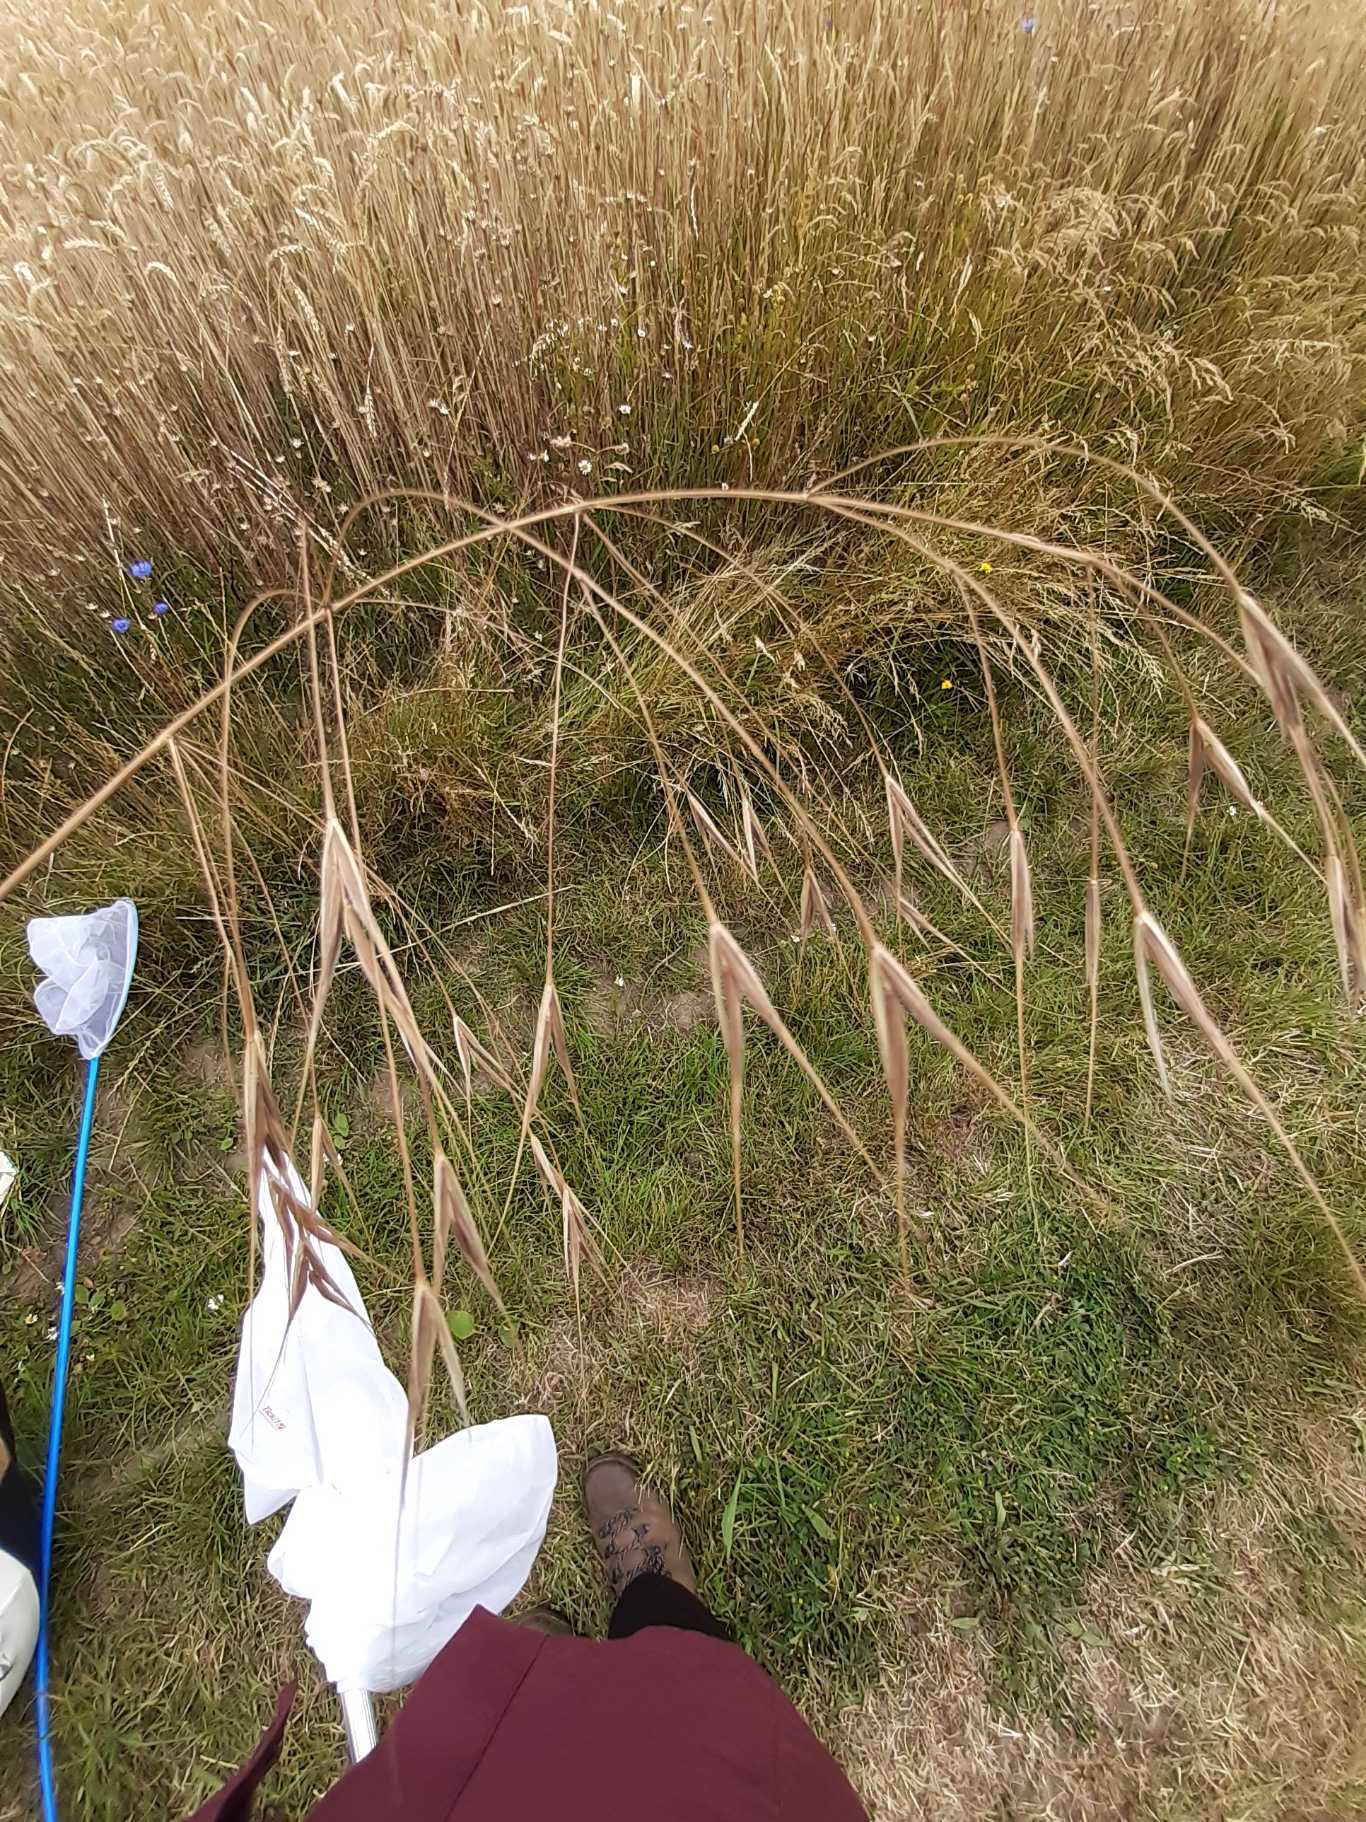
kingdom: Plantae
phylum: Tracheophyta
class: Liliopsida
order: Poales
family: Poaceae
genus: Bromus
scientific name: Bromus sterilis
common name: Gold hejre
